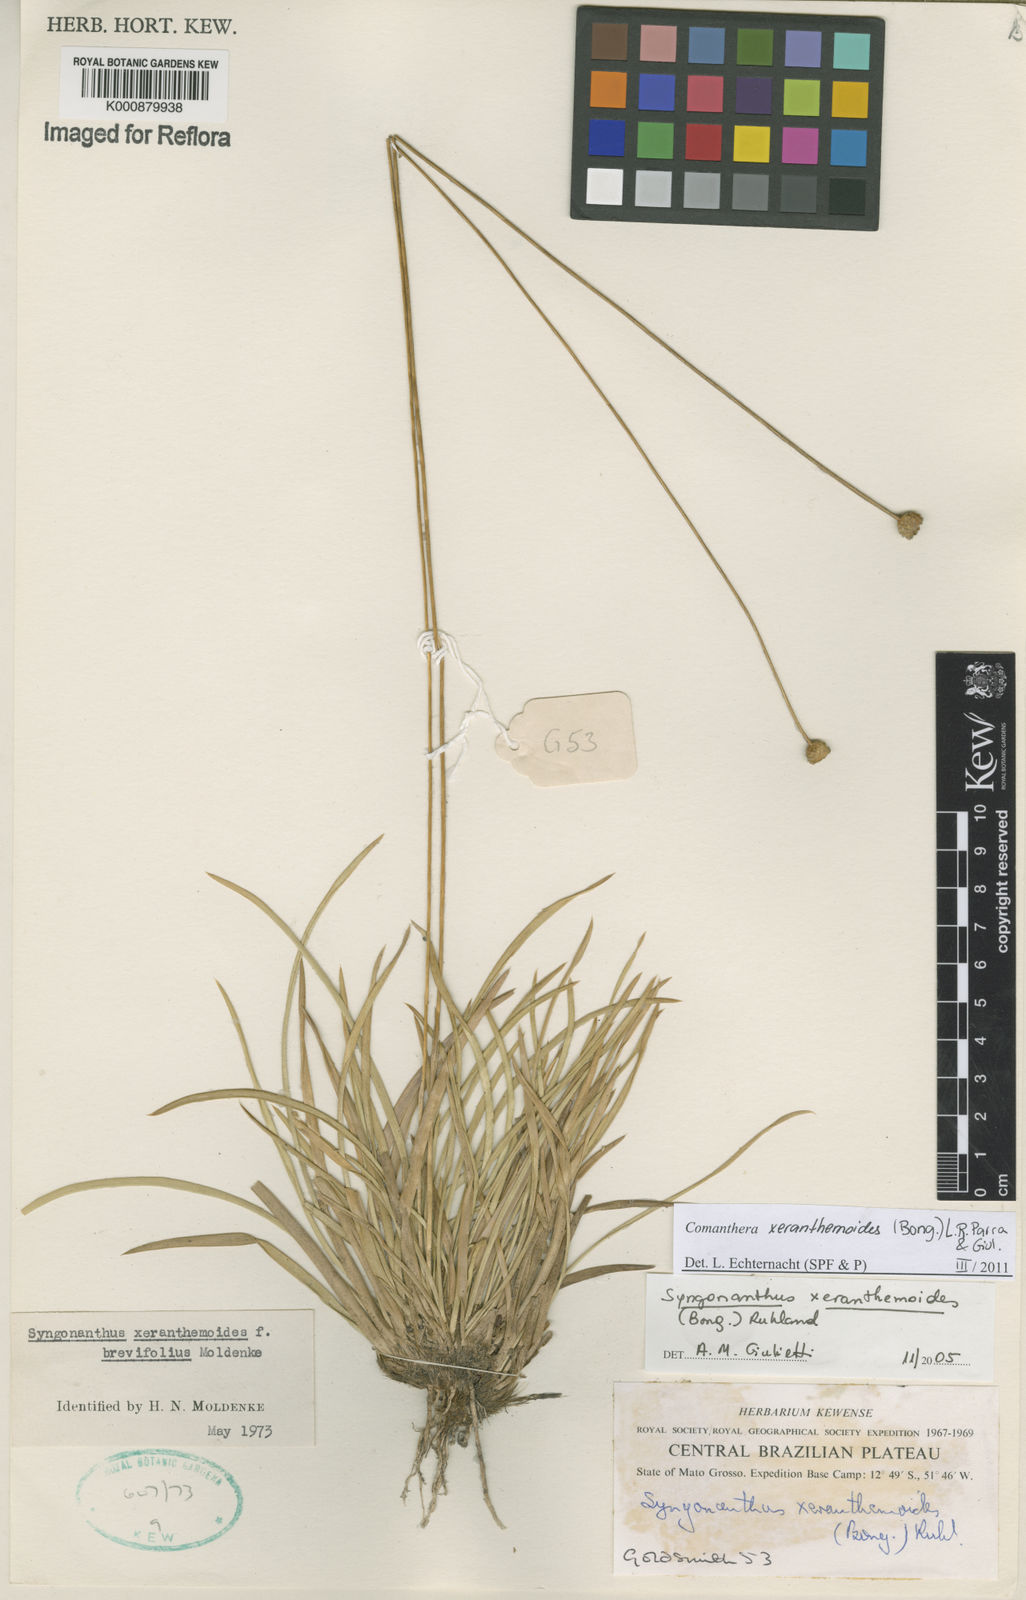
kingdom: Plantae
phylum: Tracheophyta
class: Liliopsida
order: Poales
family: Eriocaulaceae
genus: Comanthera
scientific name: Comanthera
